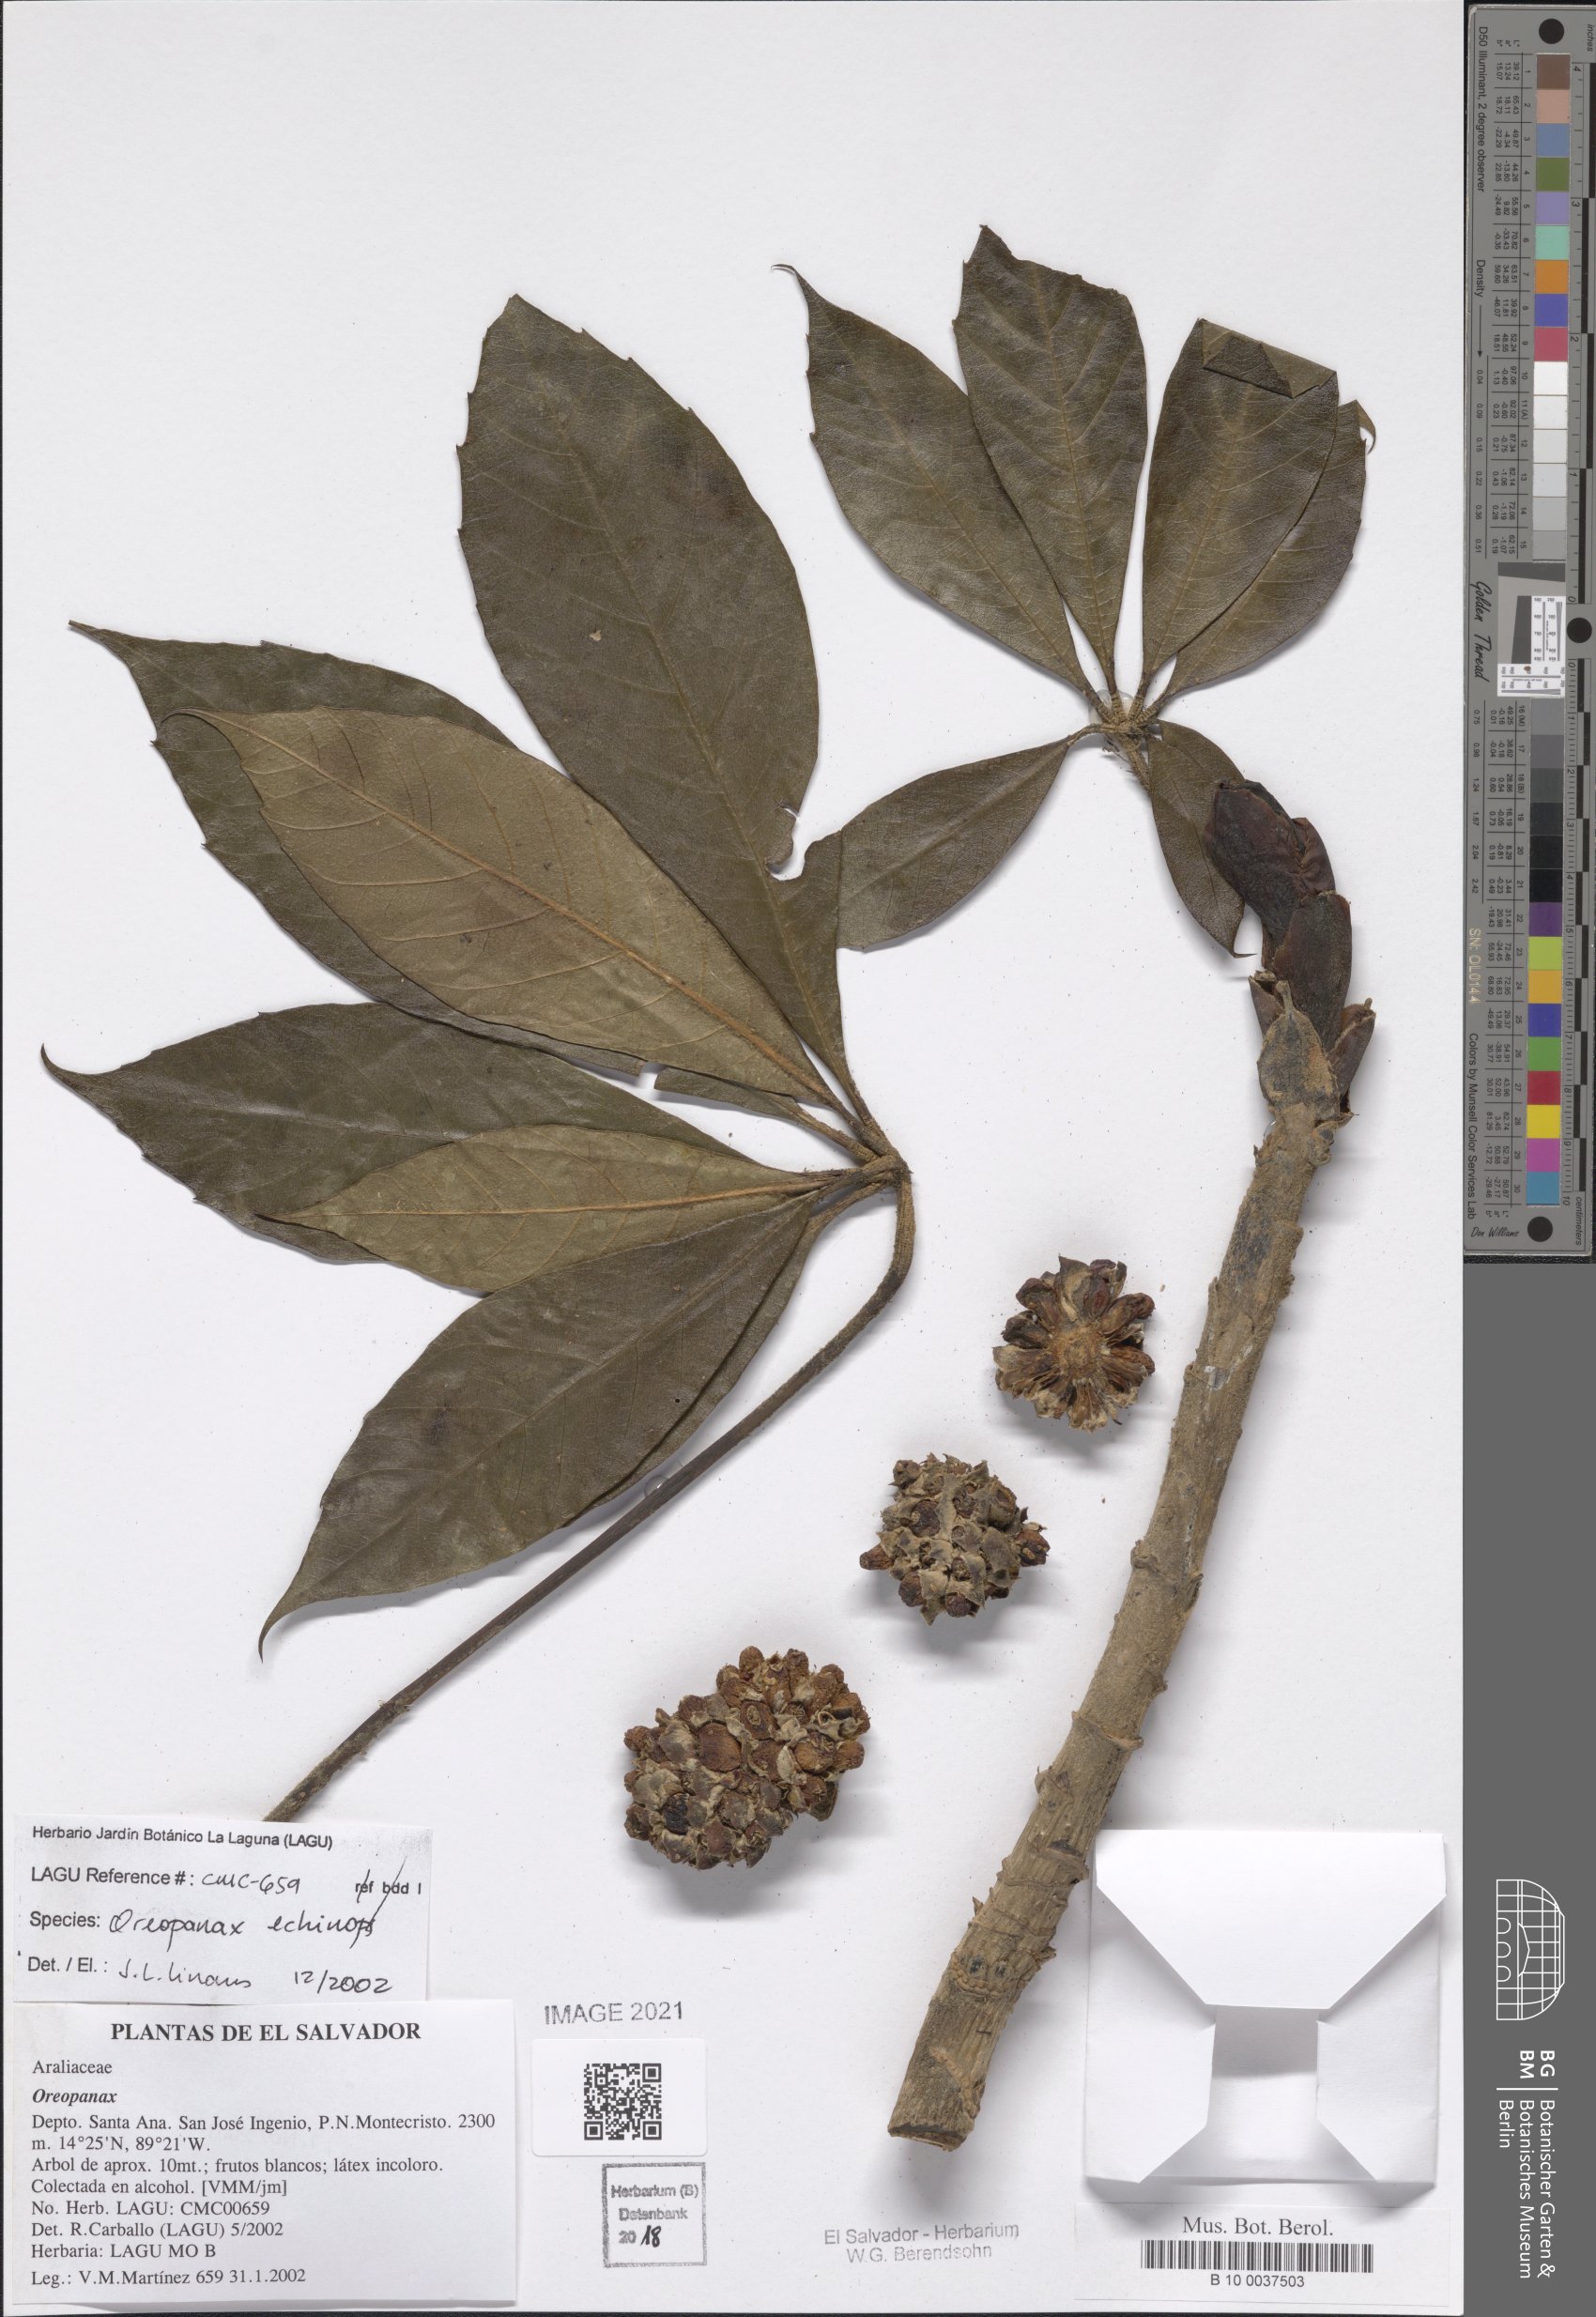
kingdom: Plantae
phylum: Tracheophyta
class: Magnoliopsida
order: Apiales
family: Araliaceae
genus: Oreopanax
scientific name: Oreopanax echinops
